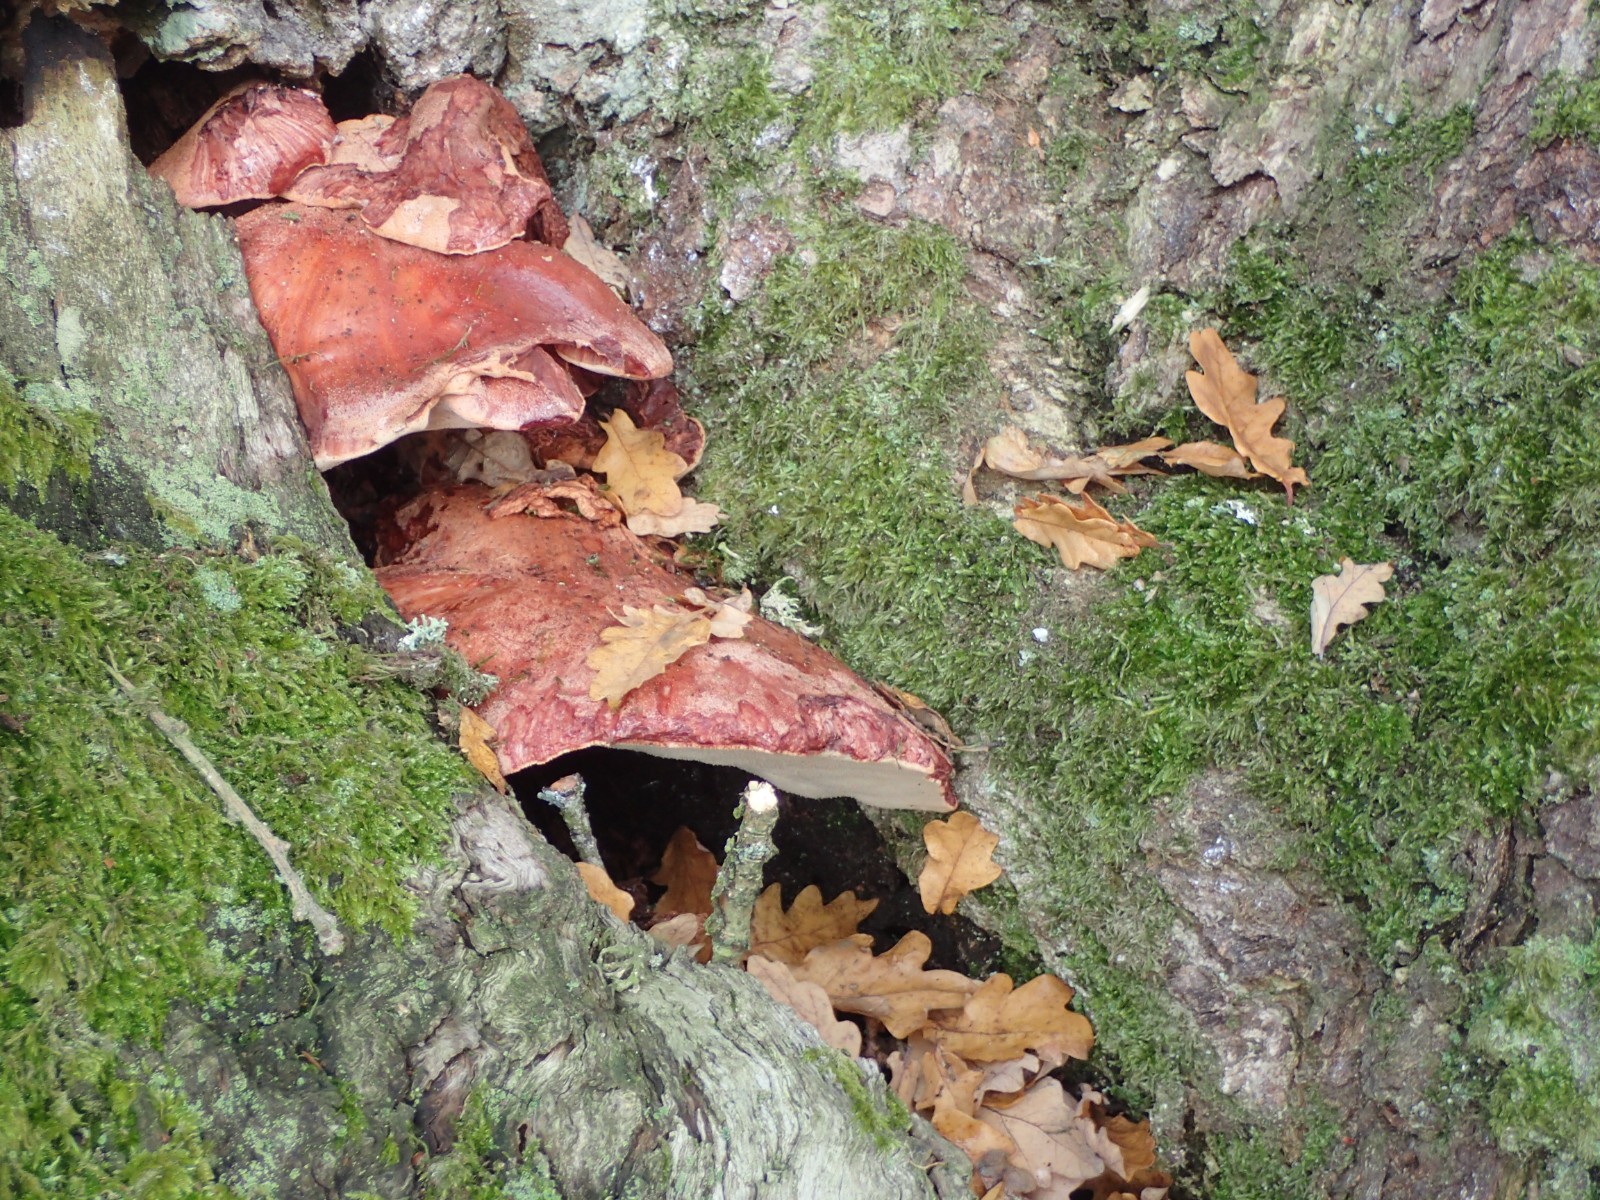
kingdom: Fungi
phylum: Basidiomycota
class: Agaricomycetes
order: Agaricales
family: Fistulinaceae
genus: Fistulina
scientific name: Fistulina hepatica
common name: oksetunge
